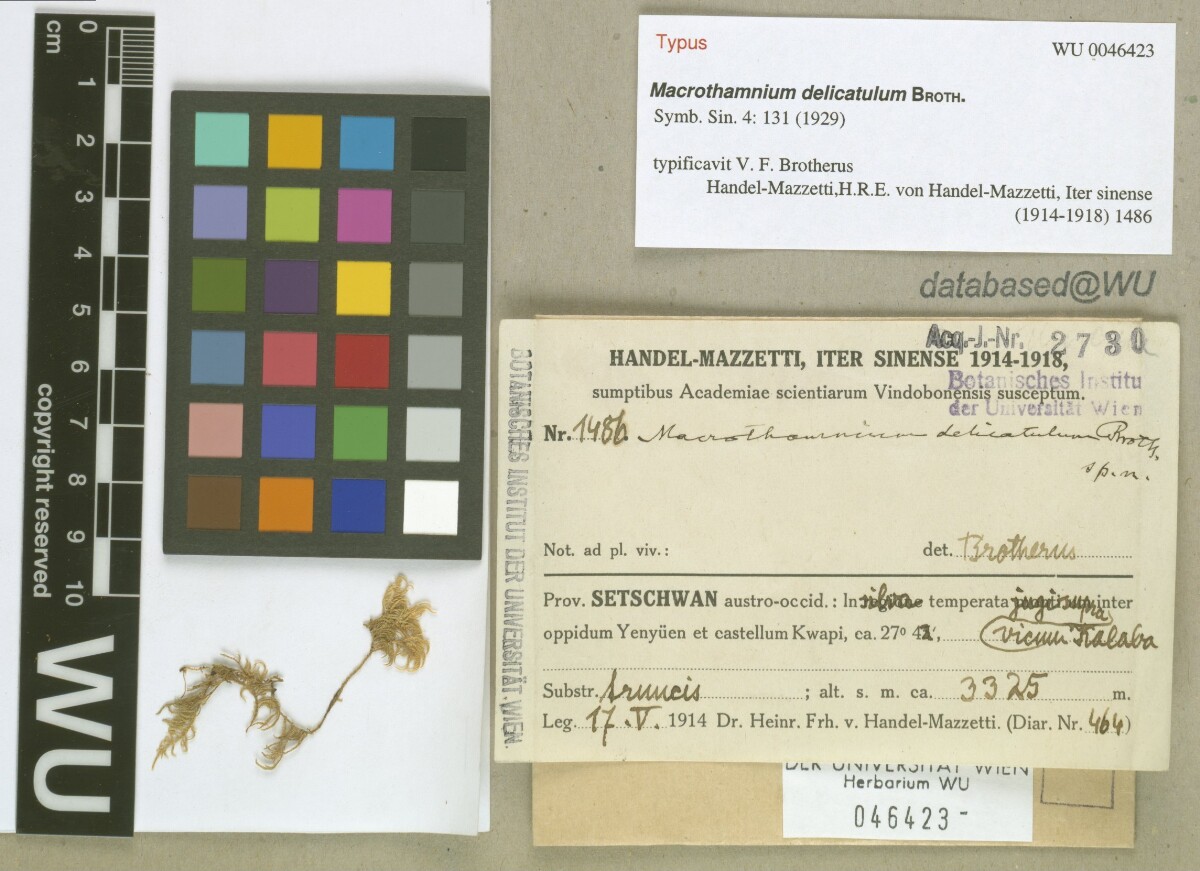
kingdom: Plantae
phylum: Bryophyta
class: Bryopsida
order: Hypnales
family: Hylocomiaceae
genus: Leptocladiella
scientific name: Leptocladiella delicatula
